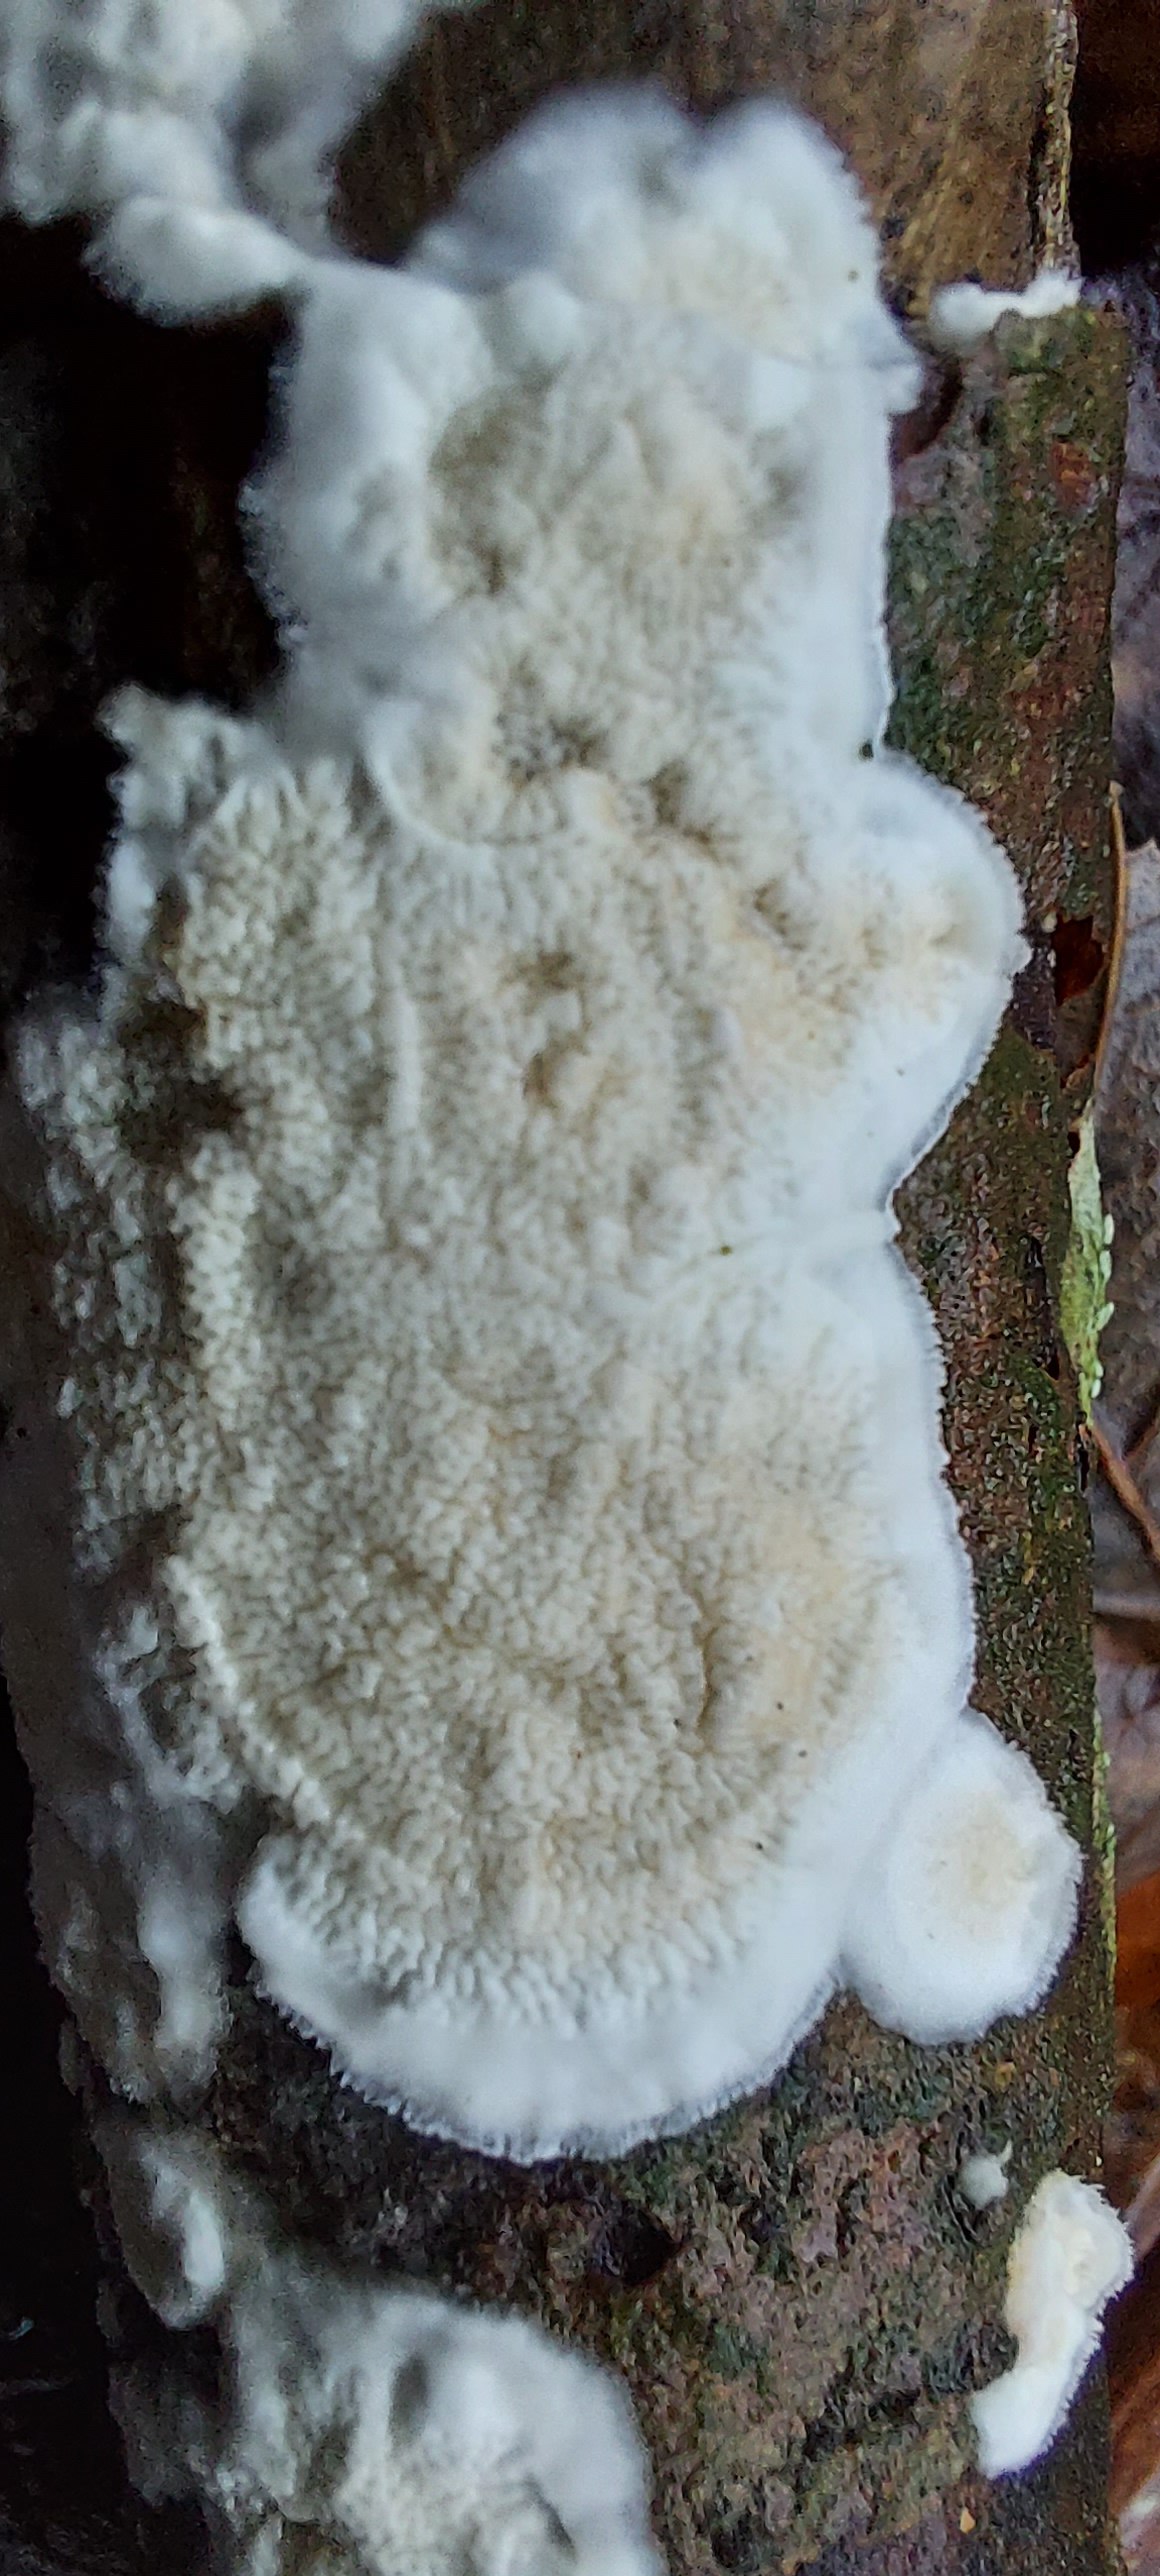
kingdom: Fungi
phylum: Basidiomycota
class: Agaricomycetes
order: Polyporales
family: Irpicaceae
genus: Byssomerulius
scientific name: Byssomerulius corium
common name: læder-åresvamp
